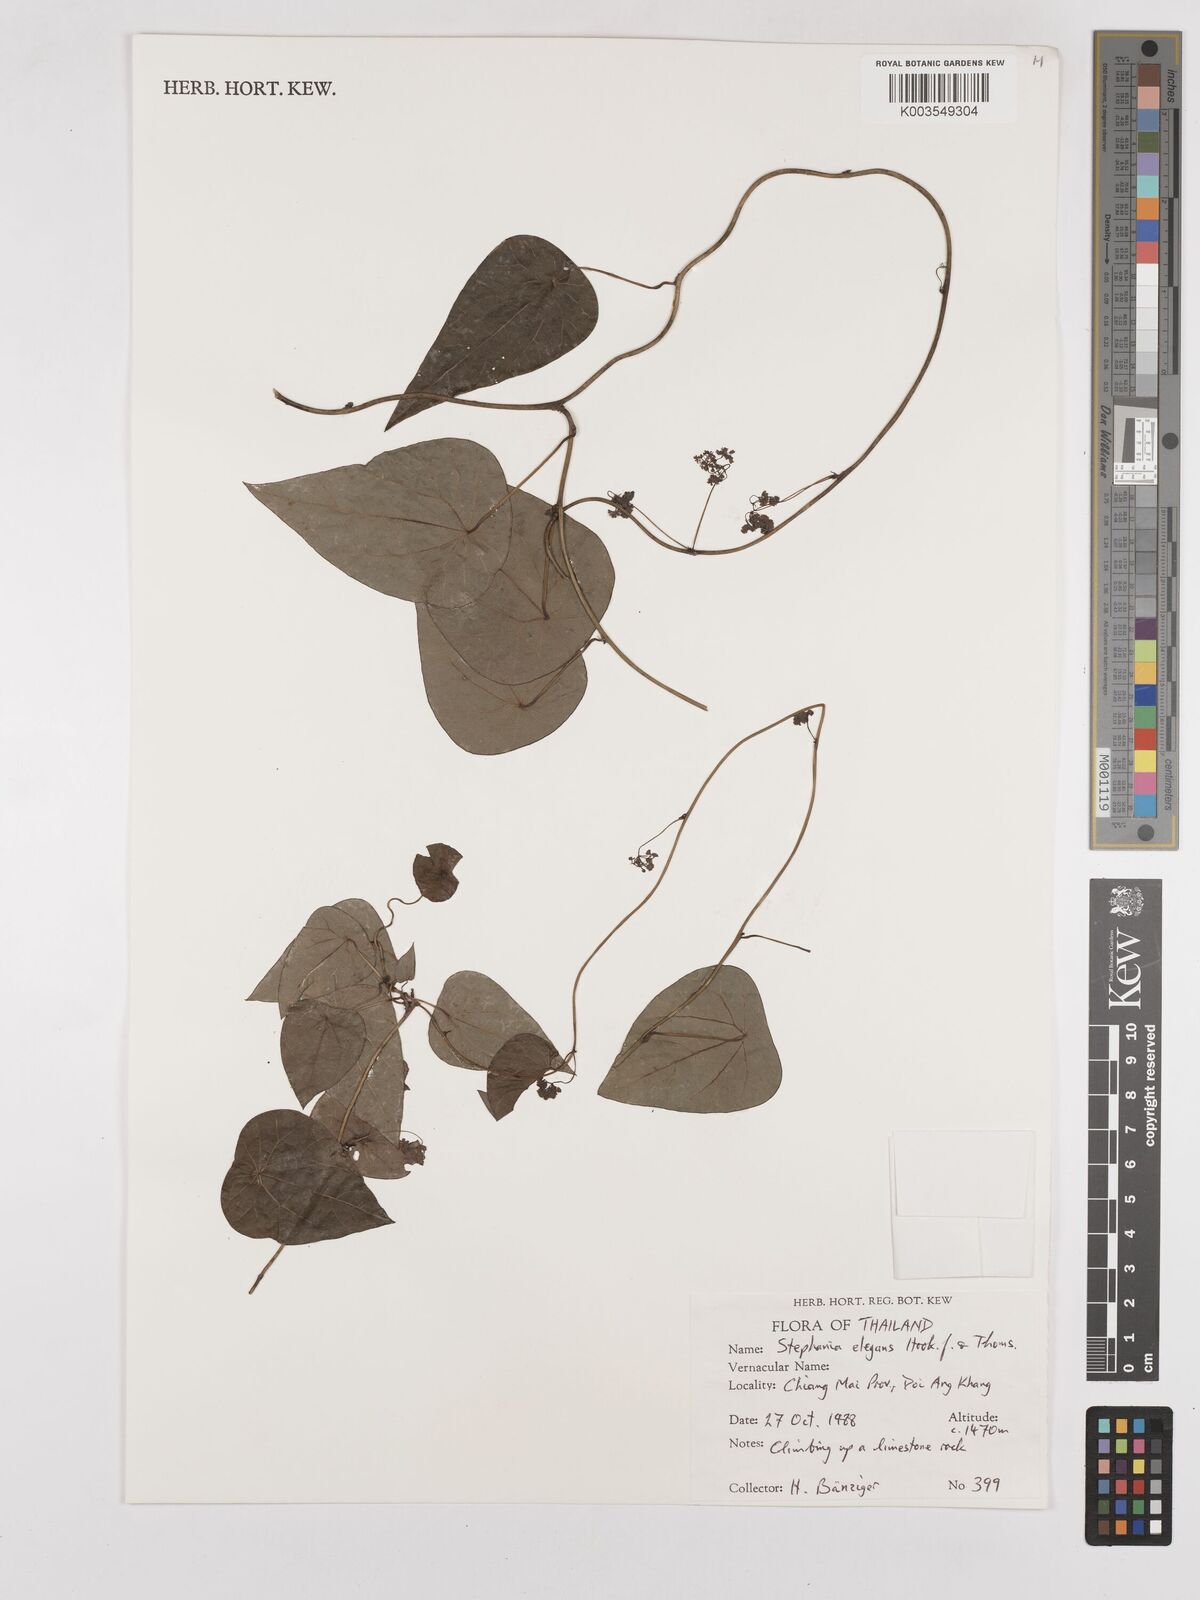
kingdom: Plantae
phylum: Tracheophyta
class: Magnoliopsida
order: Ranunculales
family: Menispermaceae
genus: Stephania
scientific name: Stephania elegans
